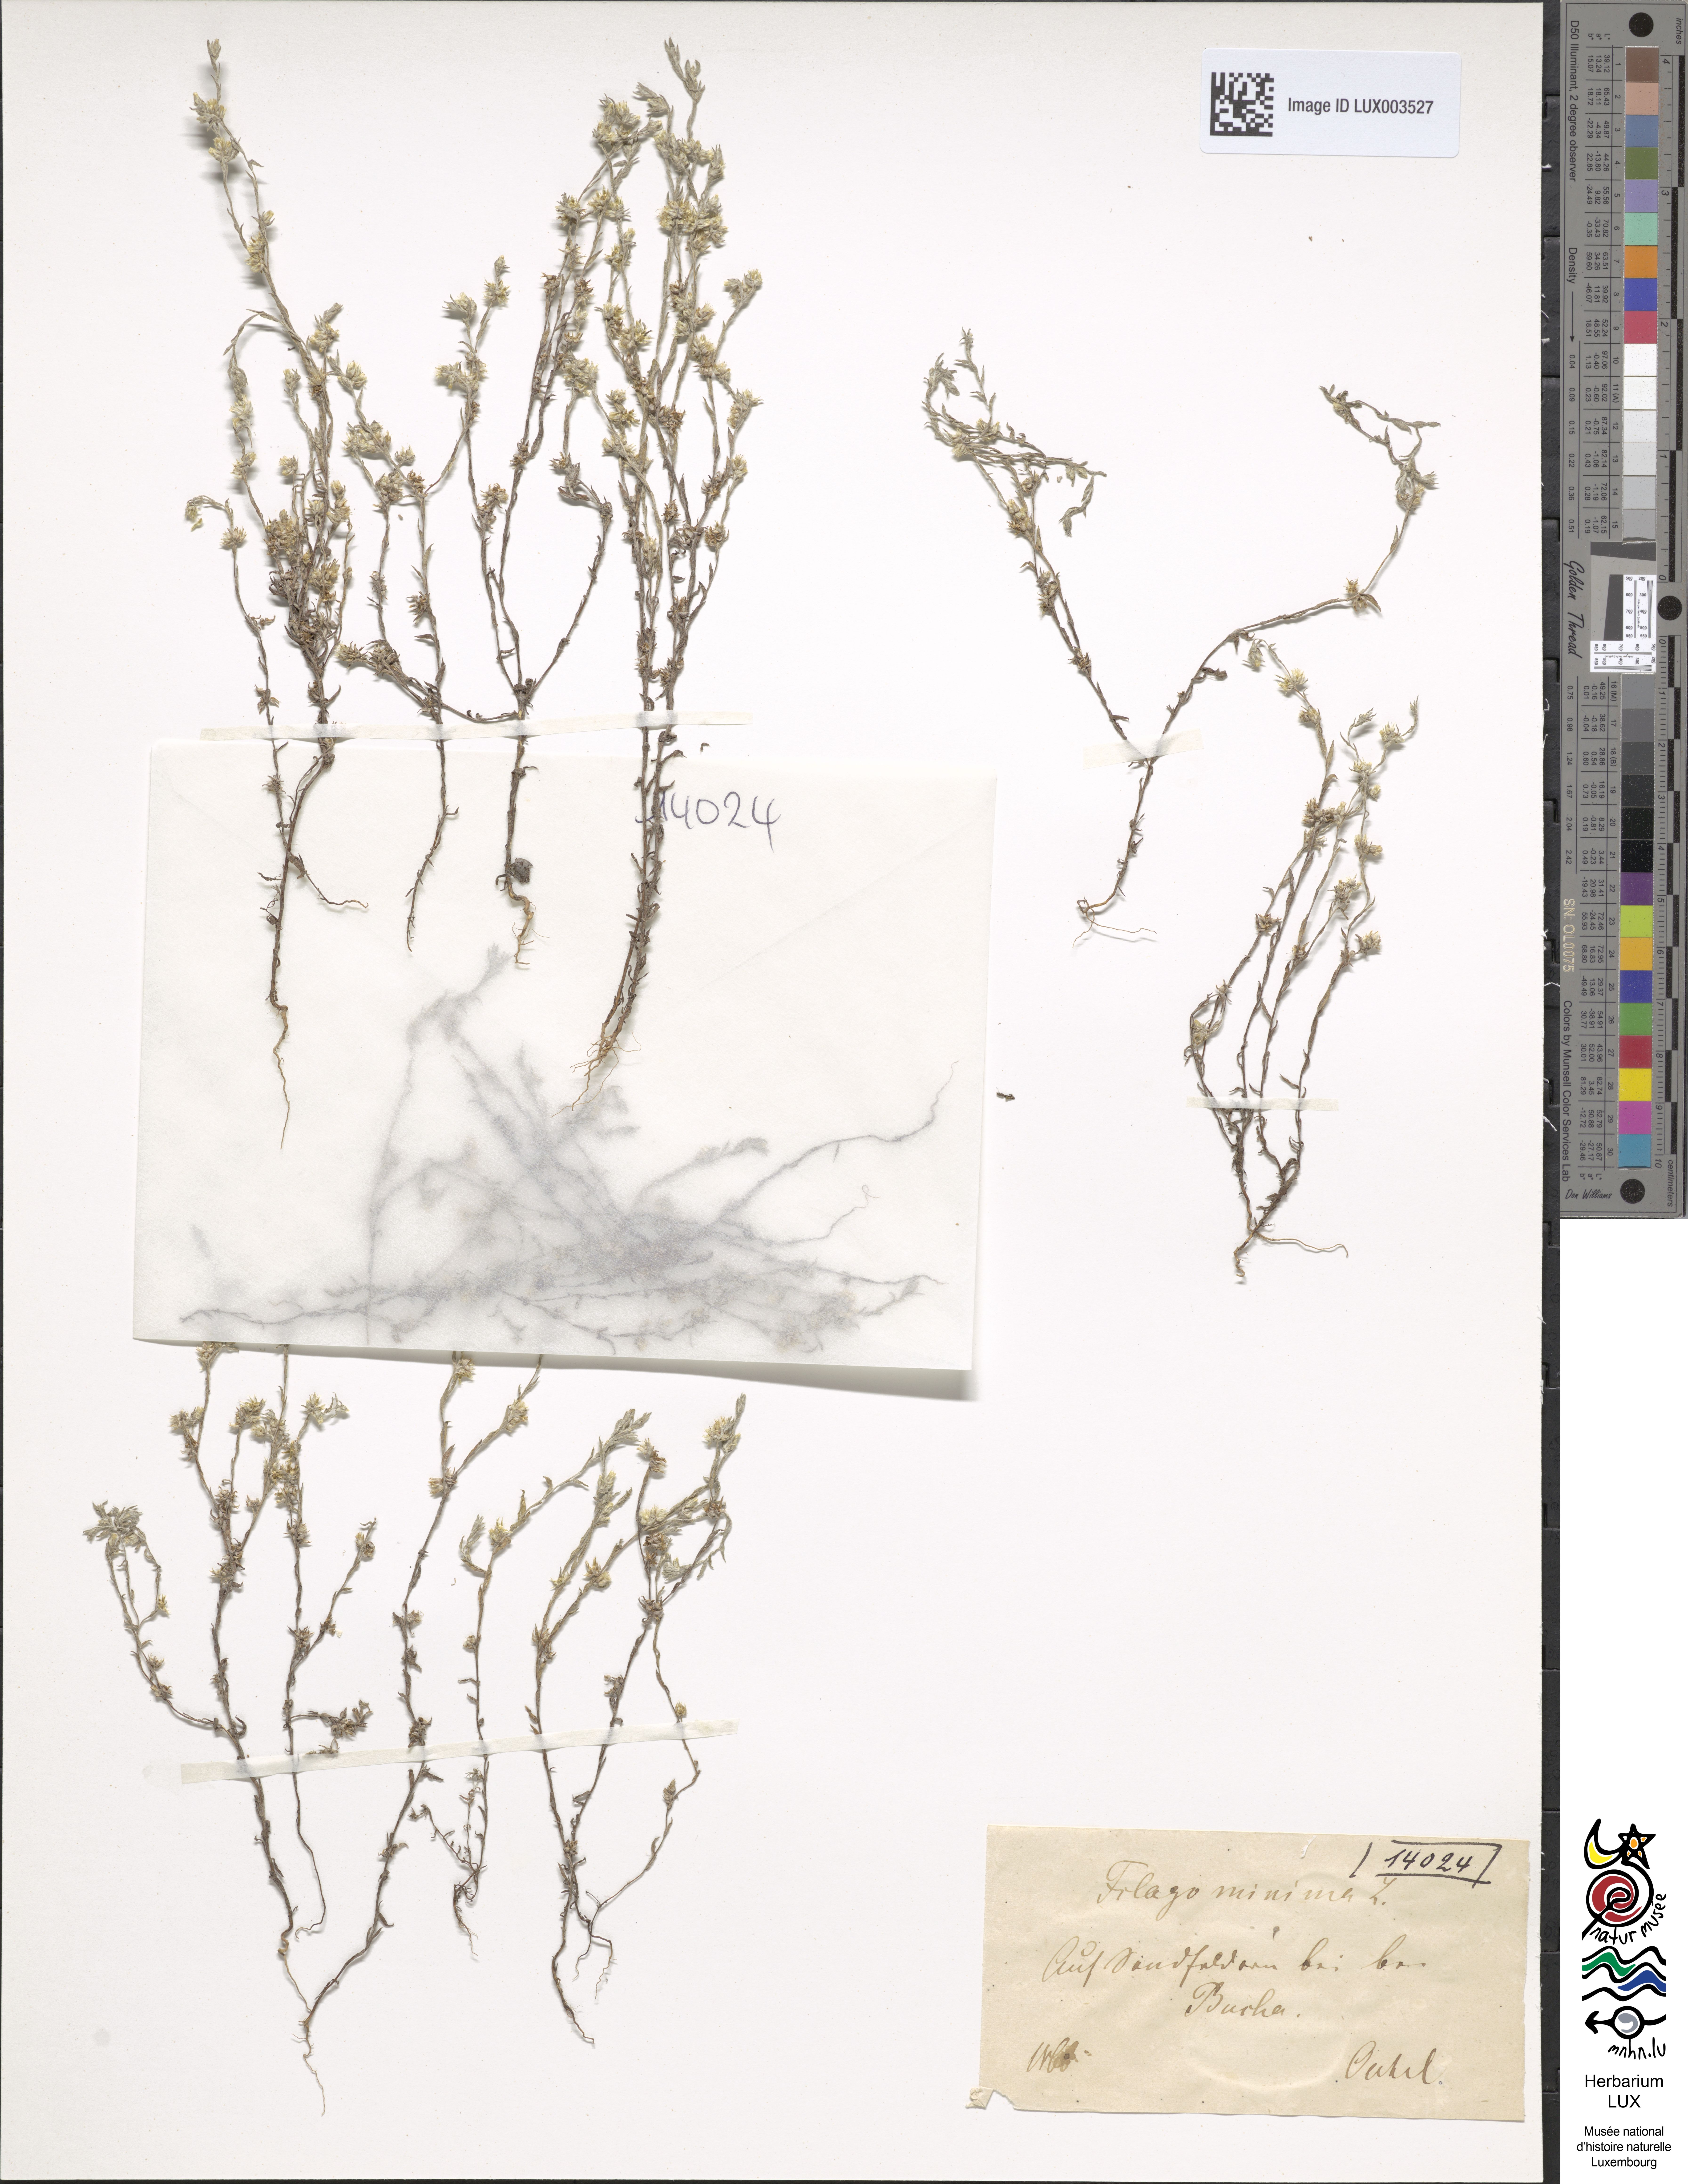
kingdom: Plantae
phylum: Tracheophyta
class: Magnoliopsida
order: Asterales
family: Asteraceae
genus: Logfia
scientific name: Logfia minima
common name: Little cottonrose
